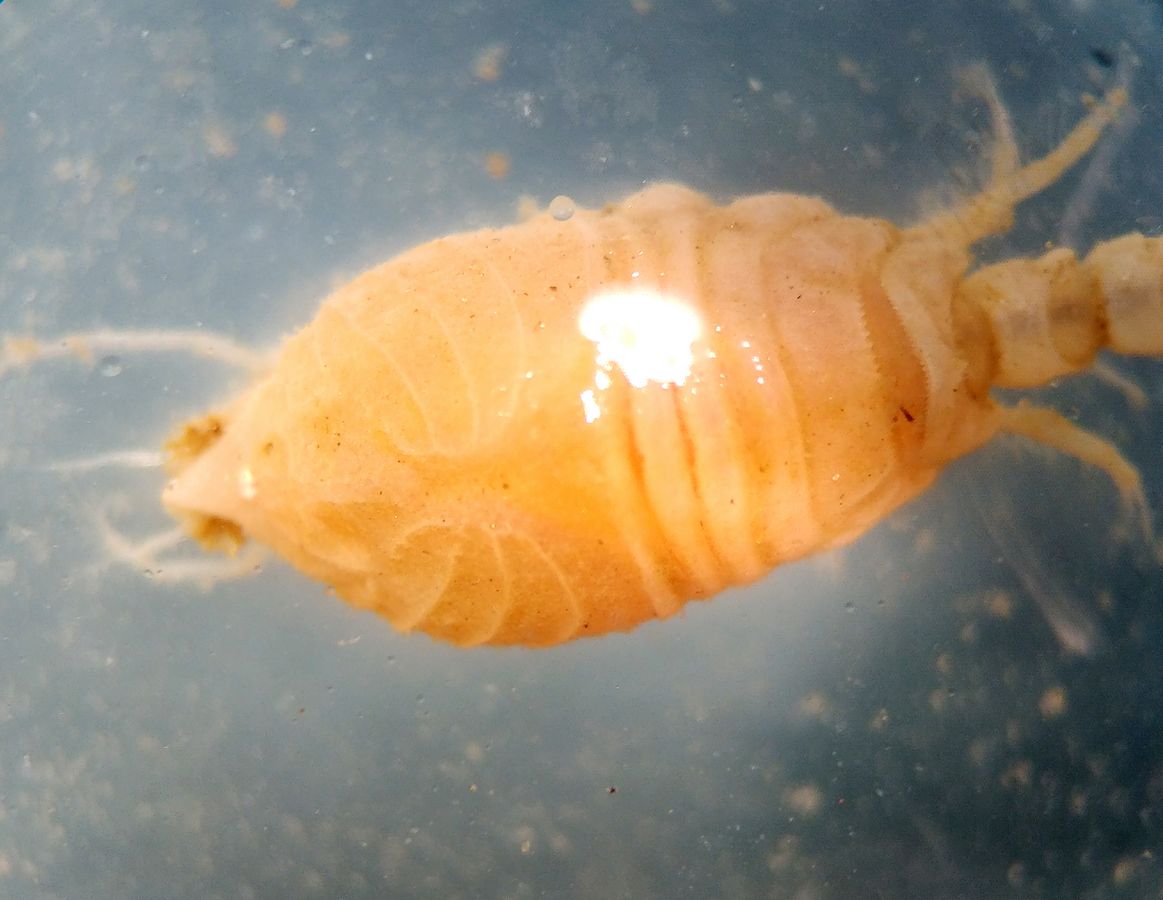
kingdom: Animalia
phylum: Arthropoda
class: Malacostraca
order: Cumacea
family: Diastylidae
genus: Diastylis
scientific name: Diastylis scorpioides
